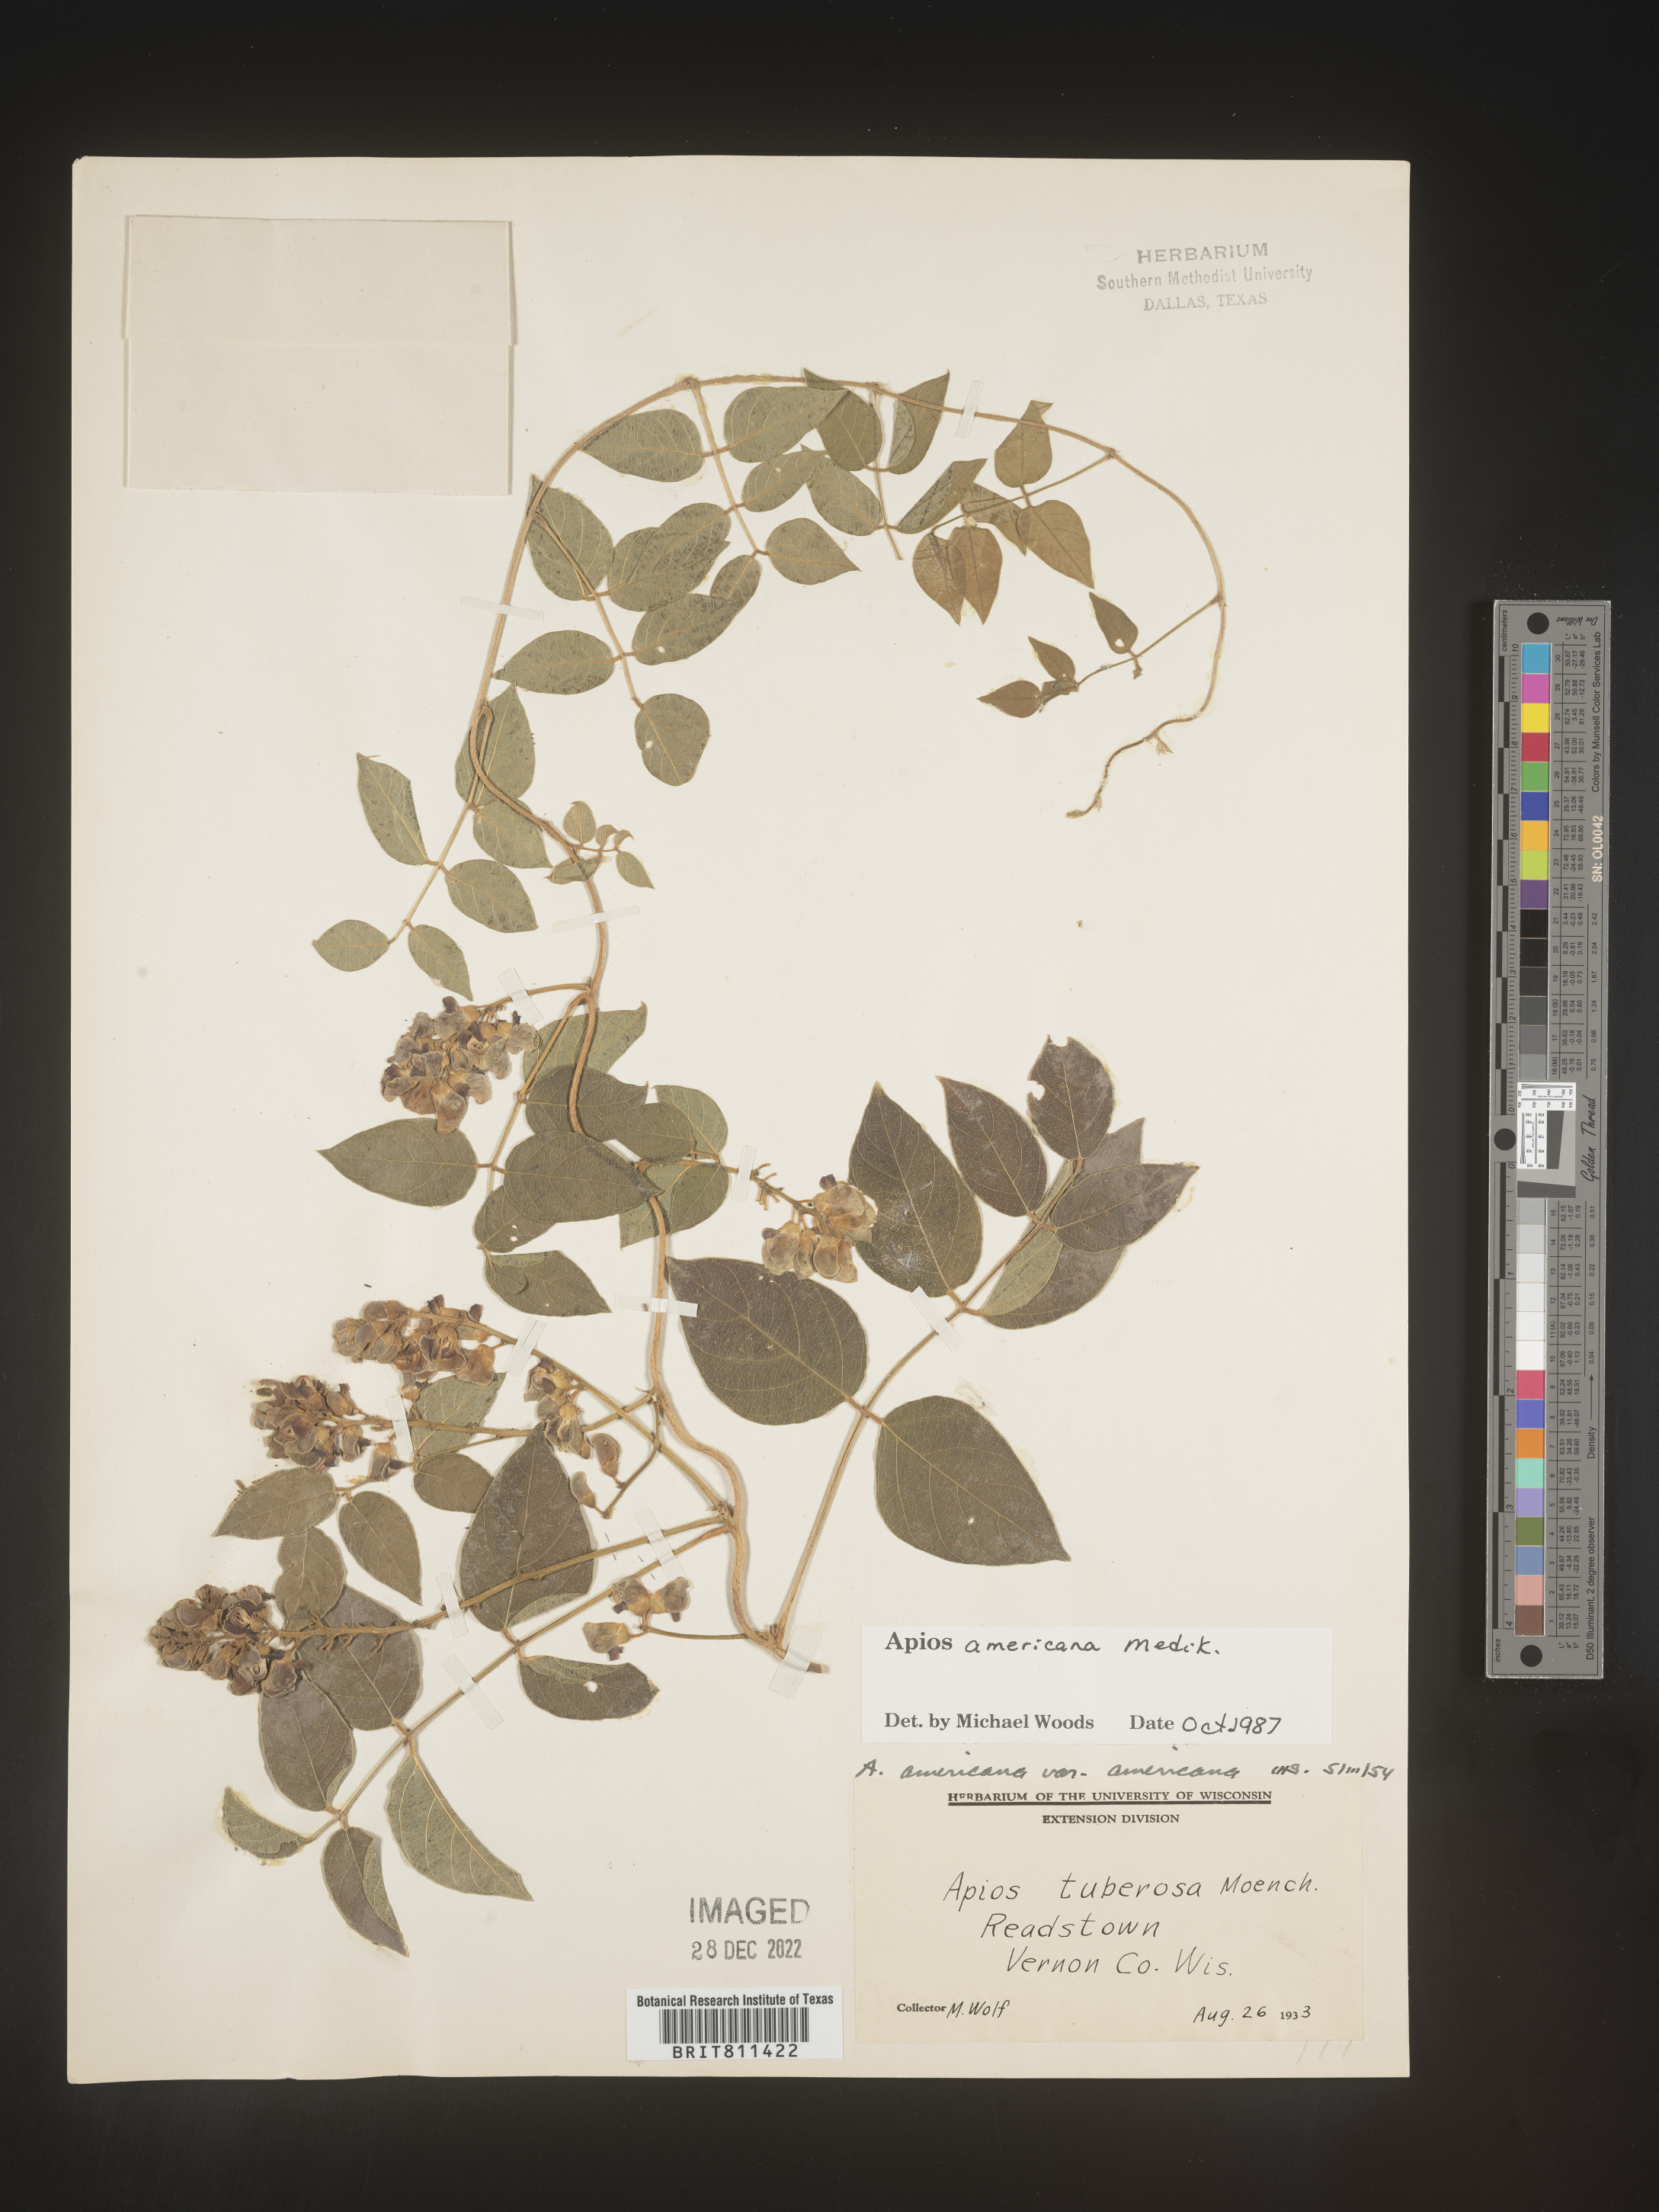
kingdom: Plantae
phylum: Tracheophyta
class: Magnoliopsida
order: Fabales
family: Fabaceae
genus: Apios
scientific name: Apios americana
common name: American potato-bean
